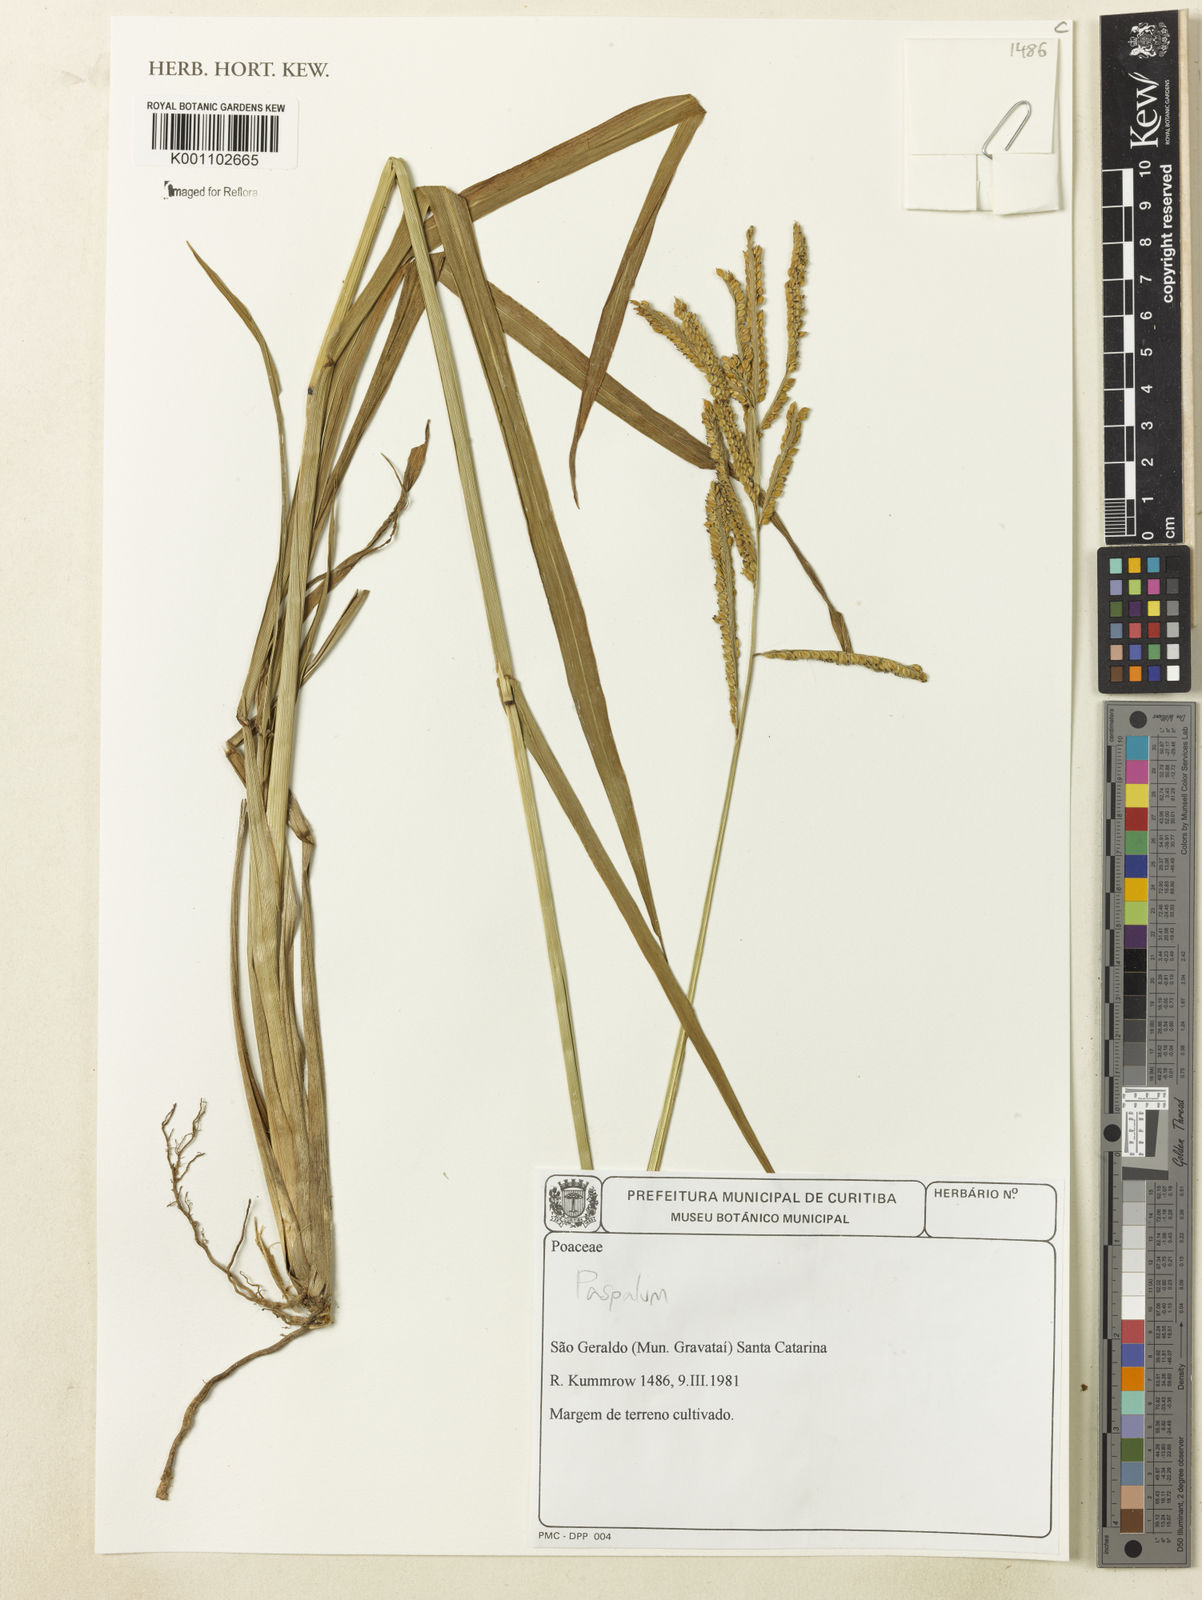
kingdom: Plantae
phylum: Tracheophyta
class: Liliopsida
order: Poales
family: Poaceae
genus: Paspalum
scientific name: Paspalum
